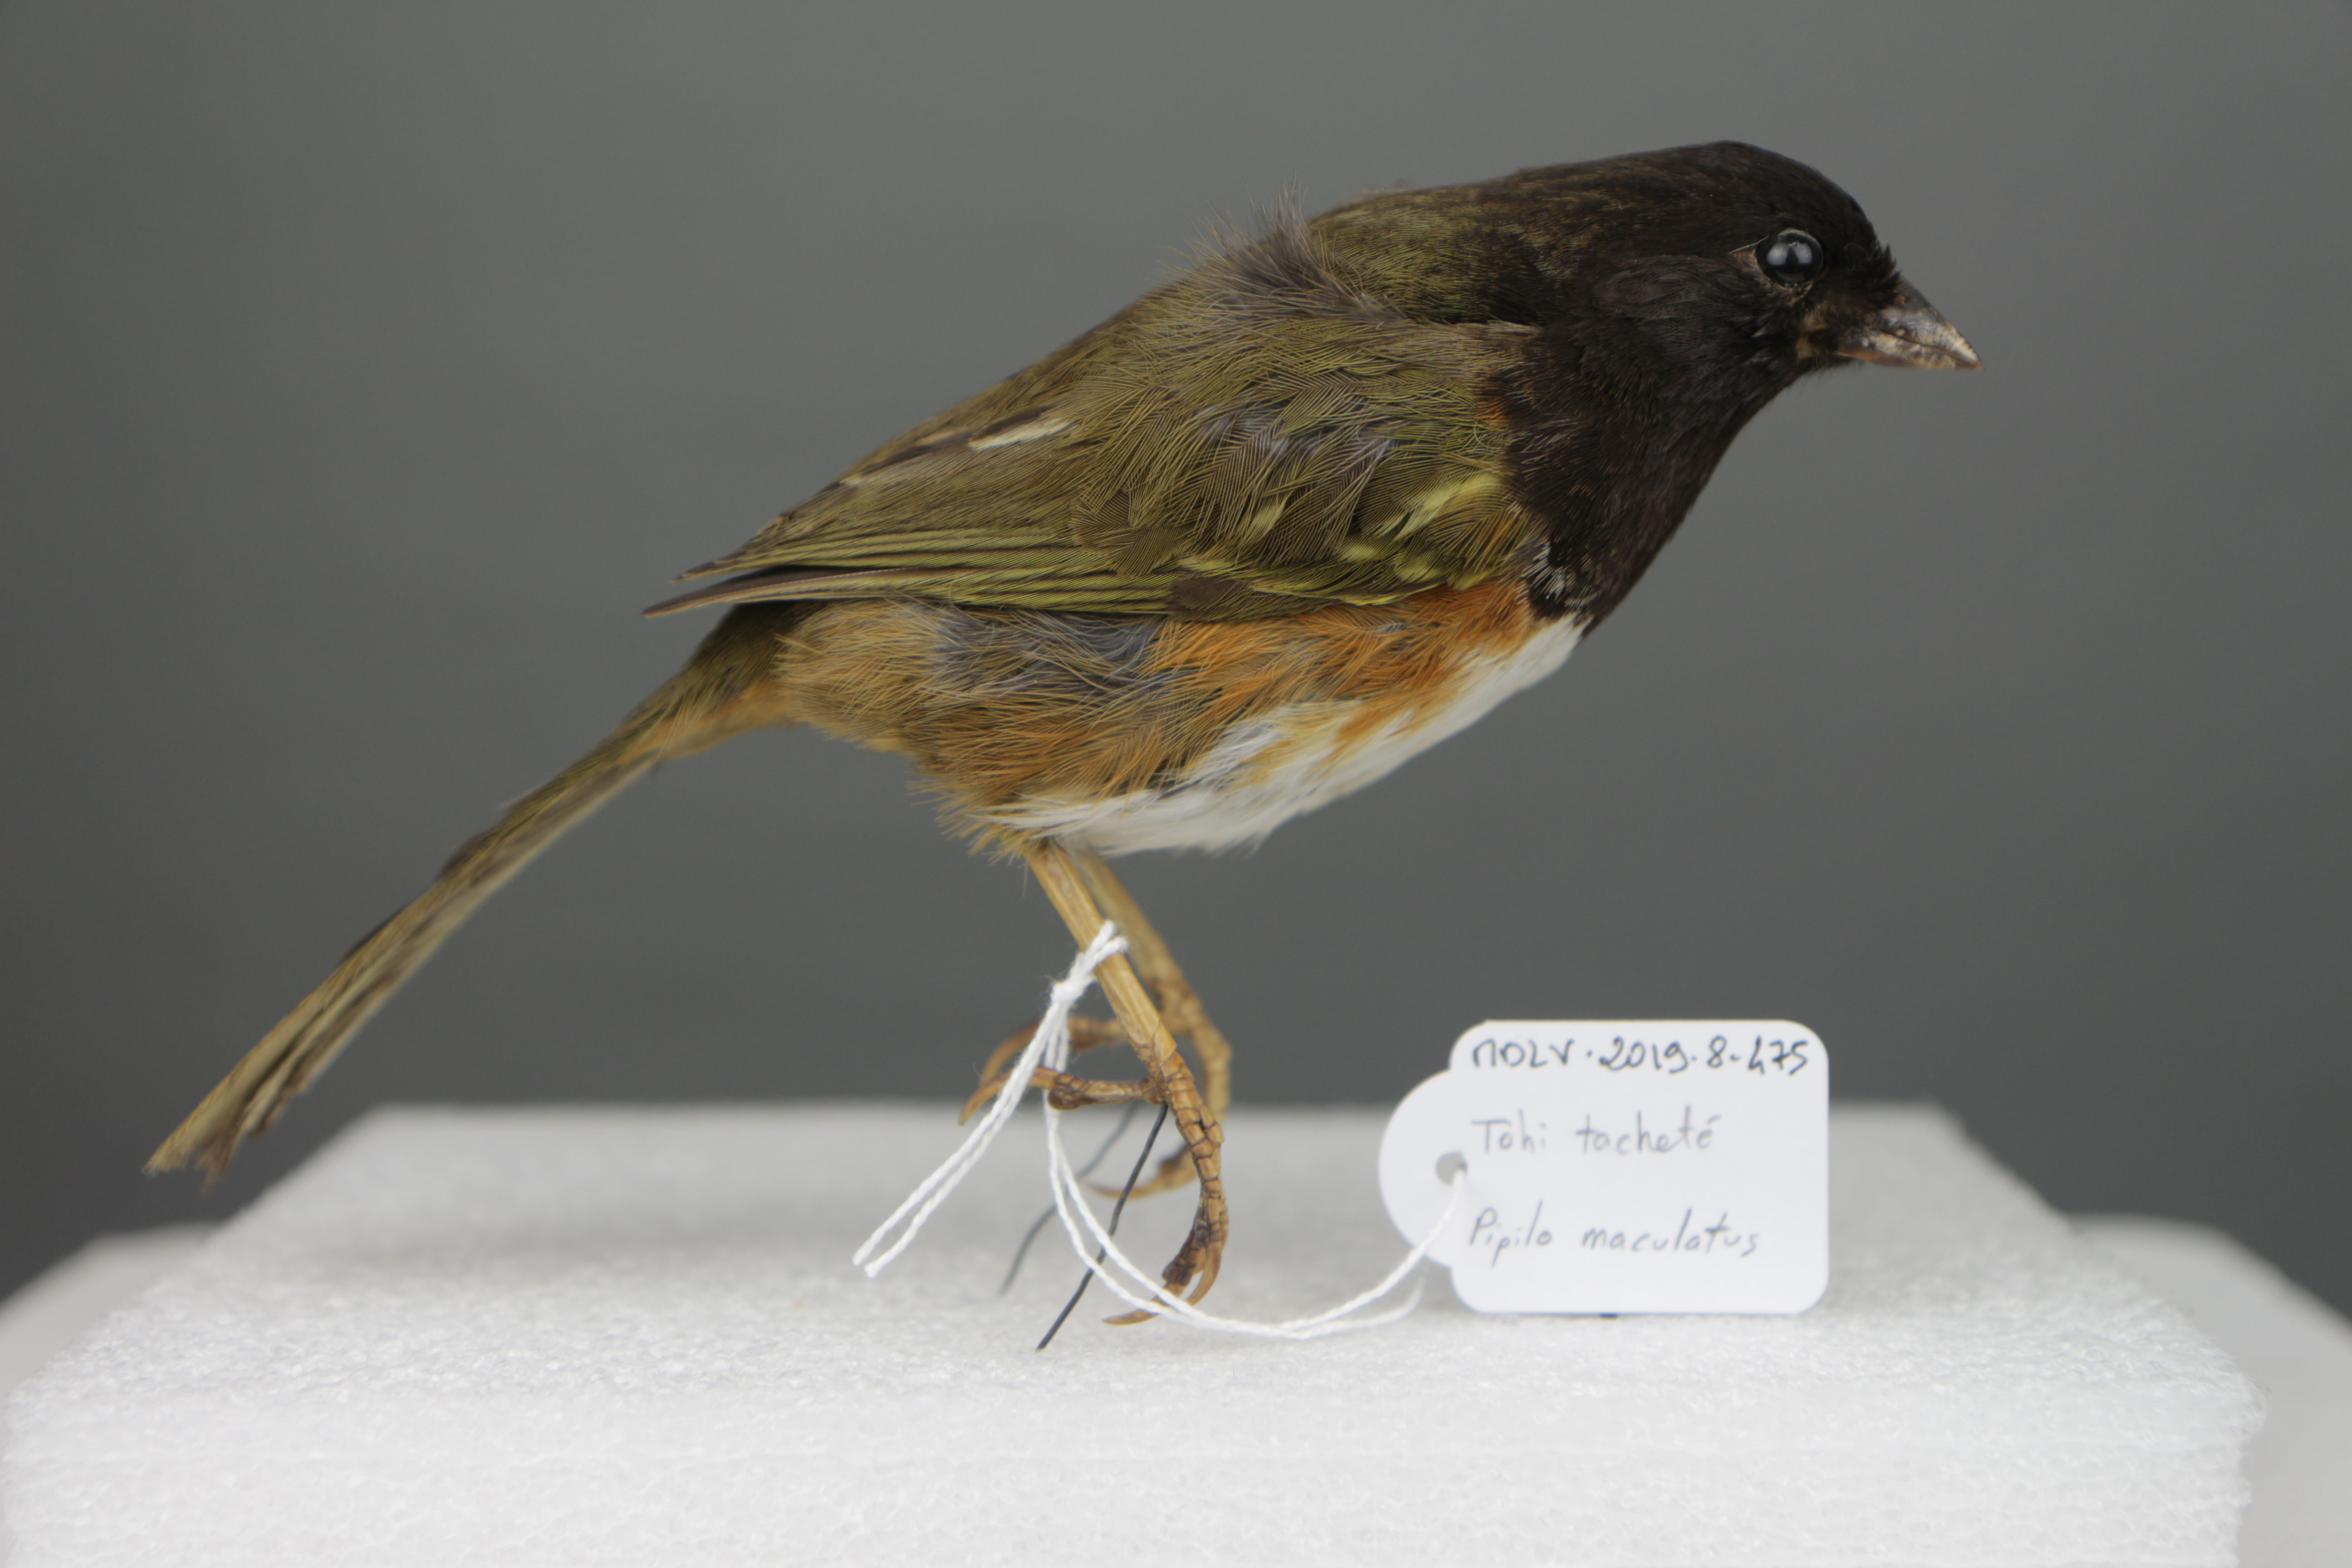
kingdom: Animalia
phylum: Chordata
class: Aves
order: Passeriformes
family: Passerellidae
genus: Pipilo
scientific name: Pipilo maculatus
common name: Spotted towhee
